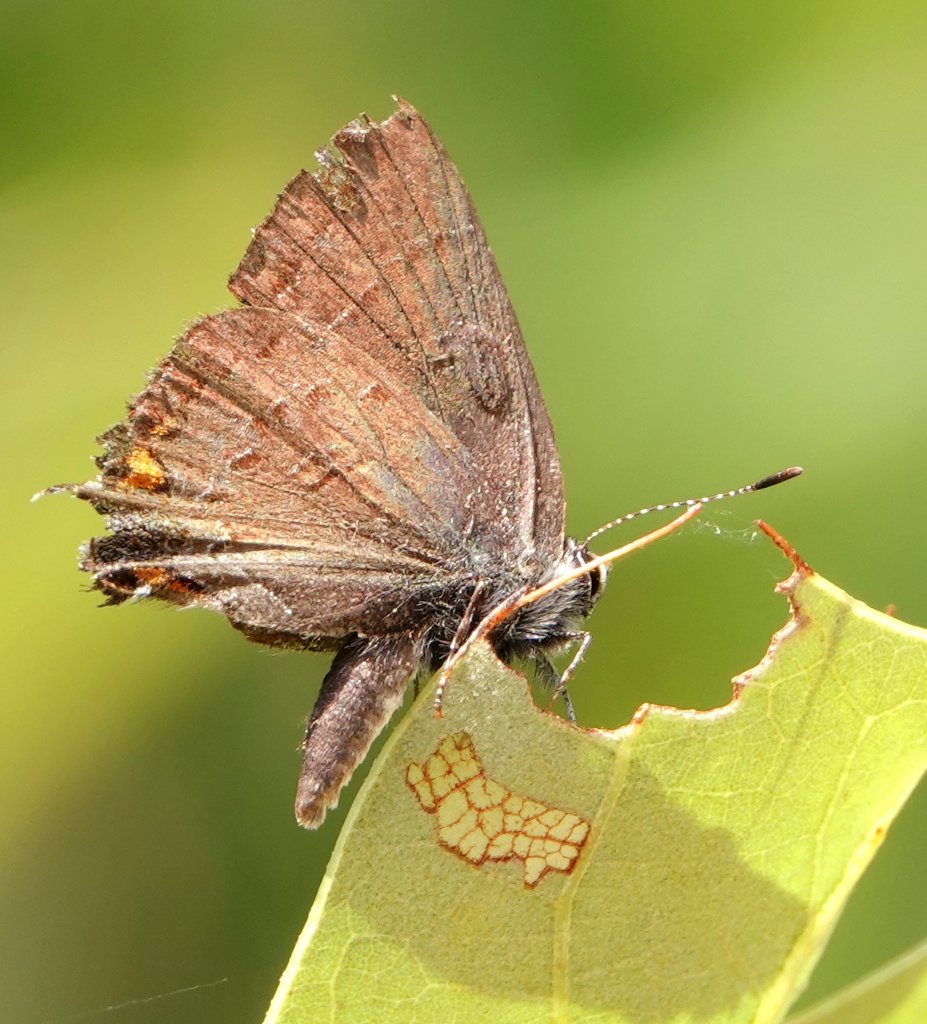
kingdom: Animalia
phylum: Arthropoda
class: Insecta
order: Lepidoptera
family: Lycaenidae
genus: Satyrium
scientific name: Satyrium calanus
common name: Banded Hairstreak
